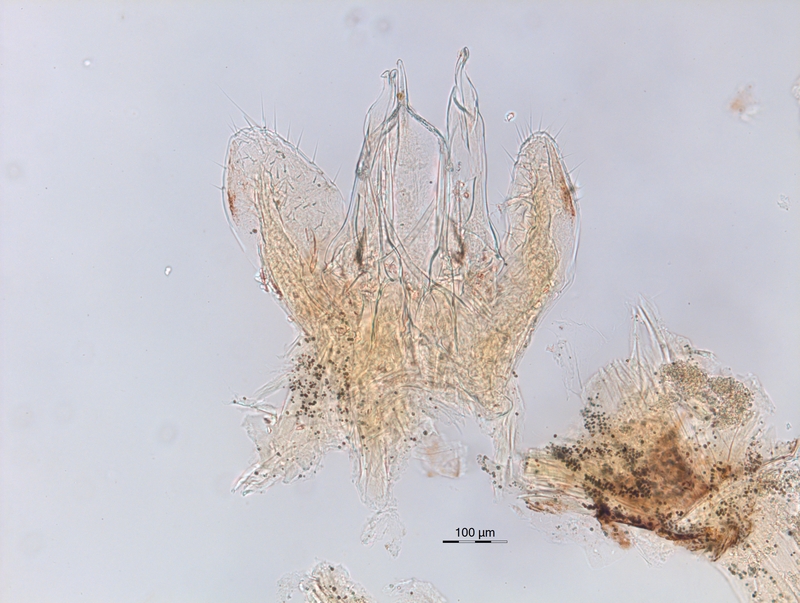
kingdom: Animalia
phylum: Arthropoda
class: Diplopoda
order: Chordeumatida
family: Chordeumatidae
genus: Melogona
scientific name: Melogona voigtii
